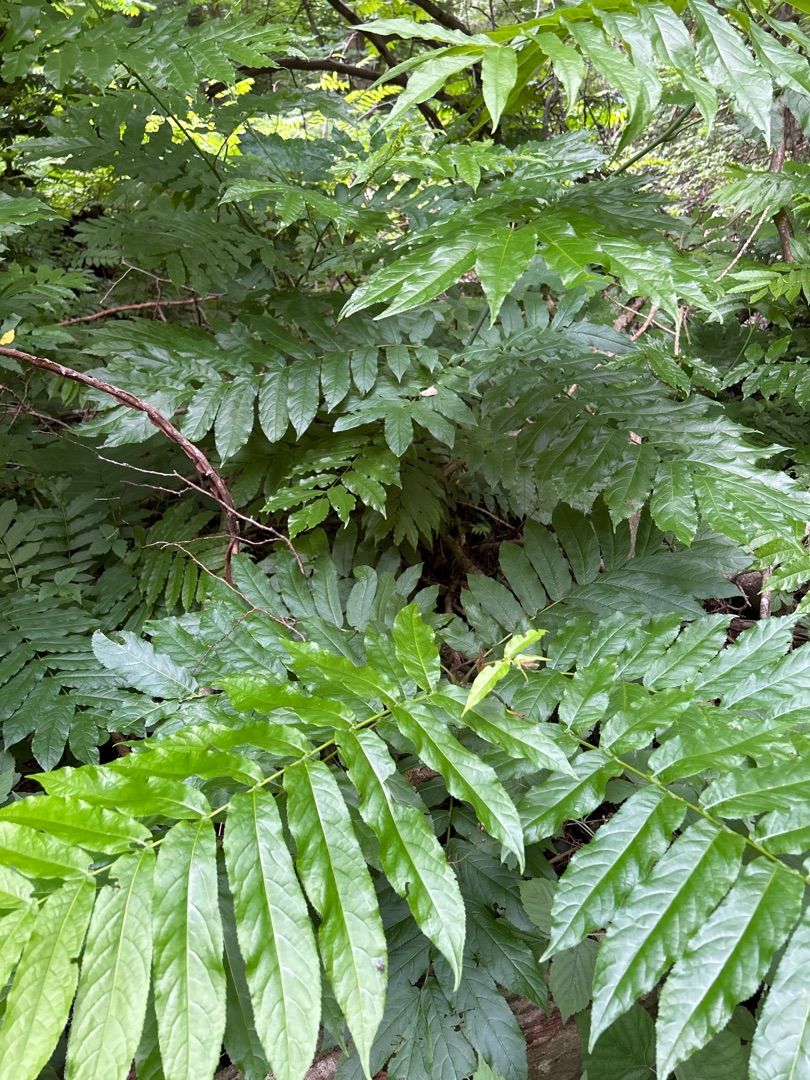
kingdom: Plantae
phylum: Tracheophyta
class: Magnoliopsida
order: Fagales
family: Juglandaceae
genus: Pterocarya
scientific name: Pterocarya fraxinifolia
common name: Kaukasisk vingevalnød
